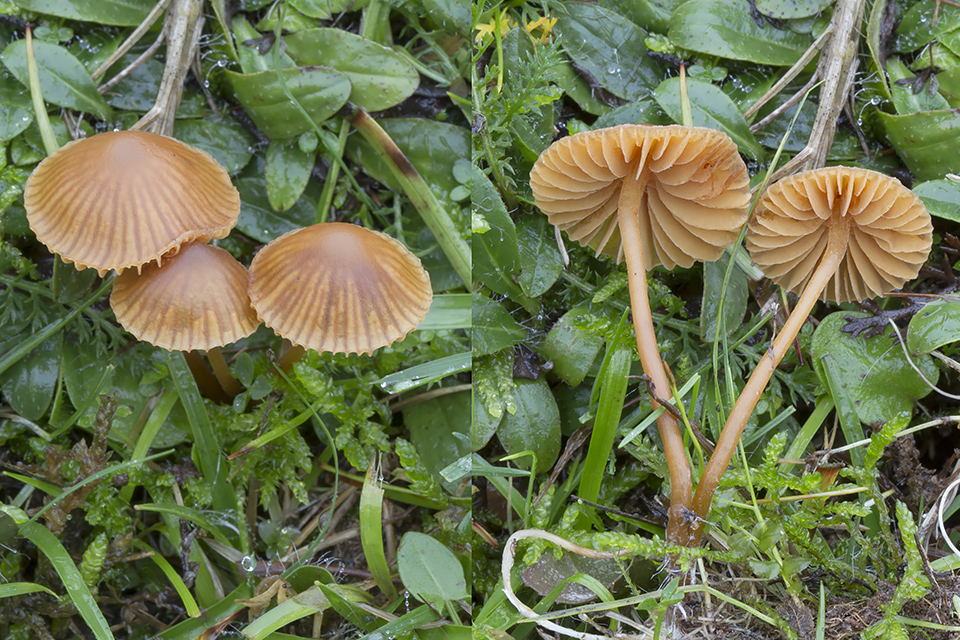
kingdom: Fungi
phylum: Basidiomycota
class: Agaricomycetes
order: Agaricales
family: Hymenogastraceae
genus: Galerina
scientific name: Galerina vittiformis
